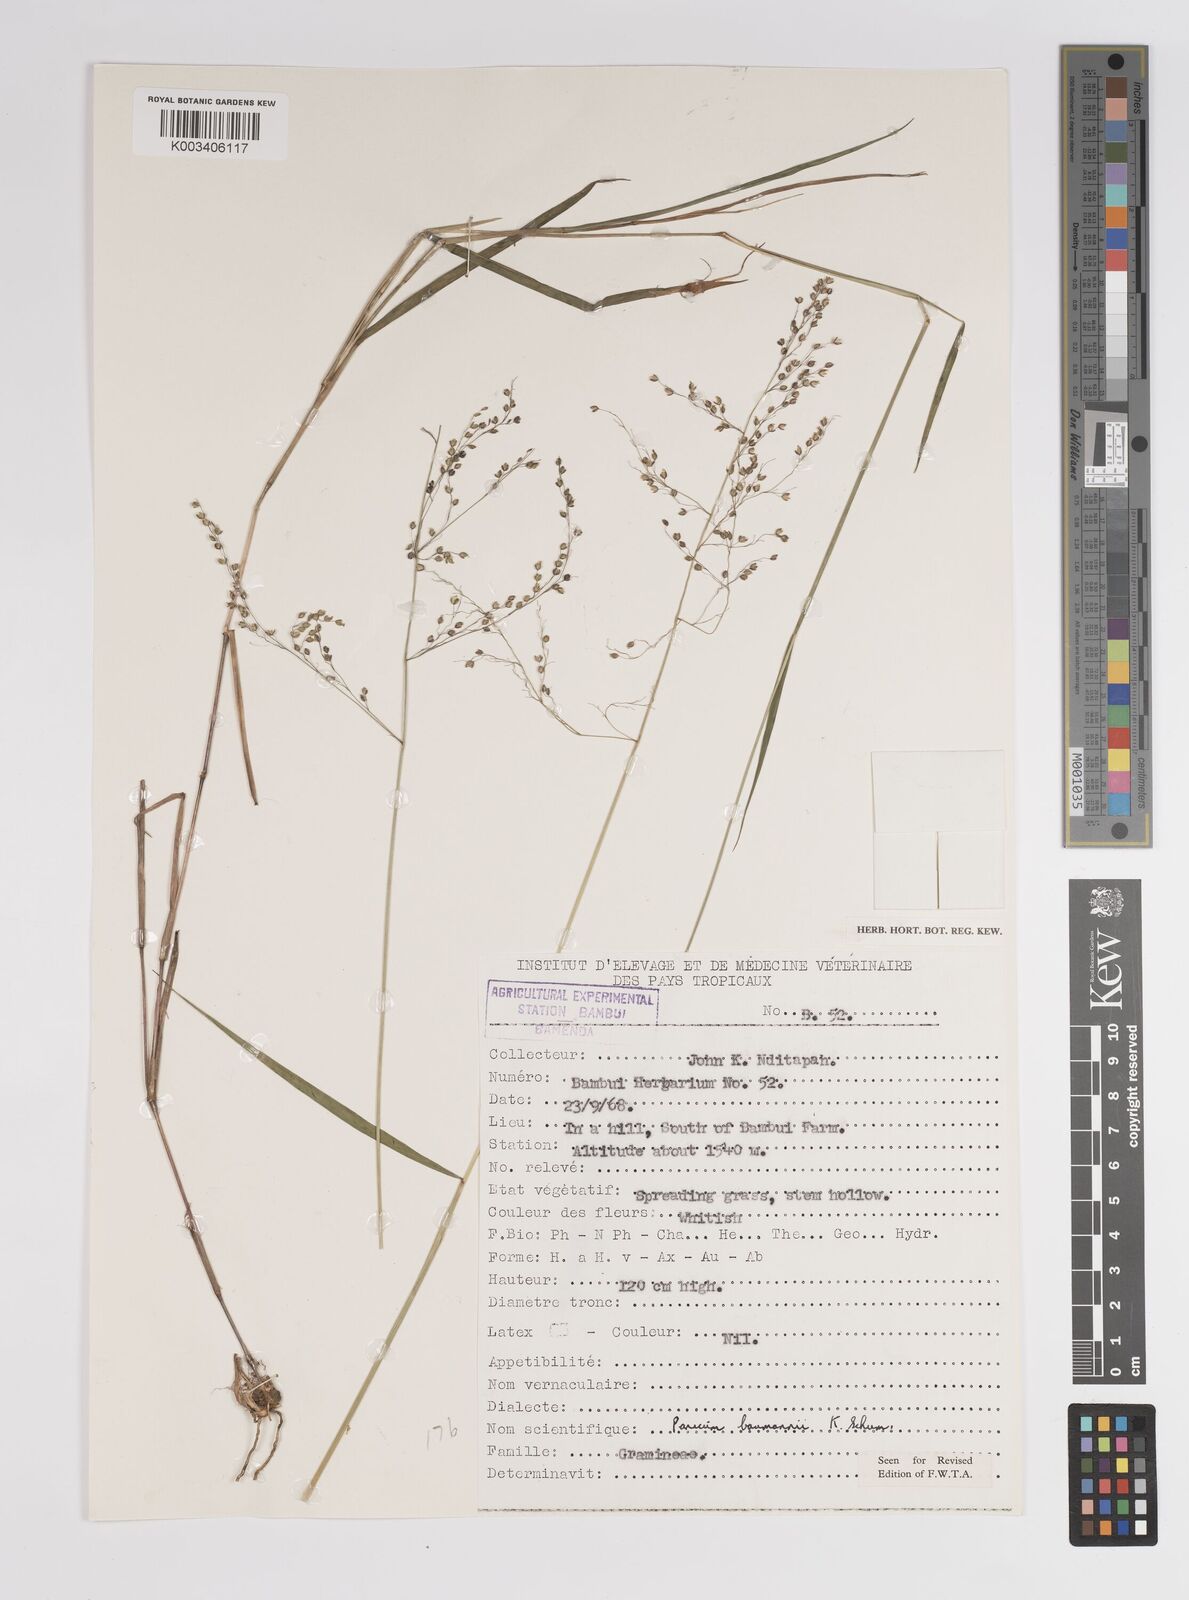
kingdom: Plantae
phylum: Tracheophyta
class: Liliopsida
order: Poales
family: Poaceae
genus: Trichanthecium
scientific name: Trichanthecium nervatum
